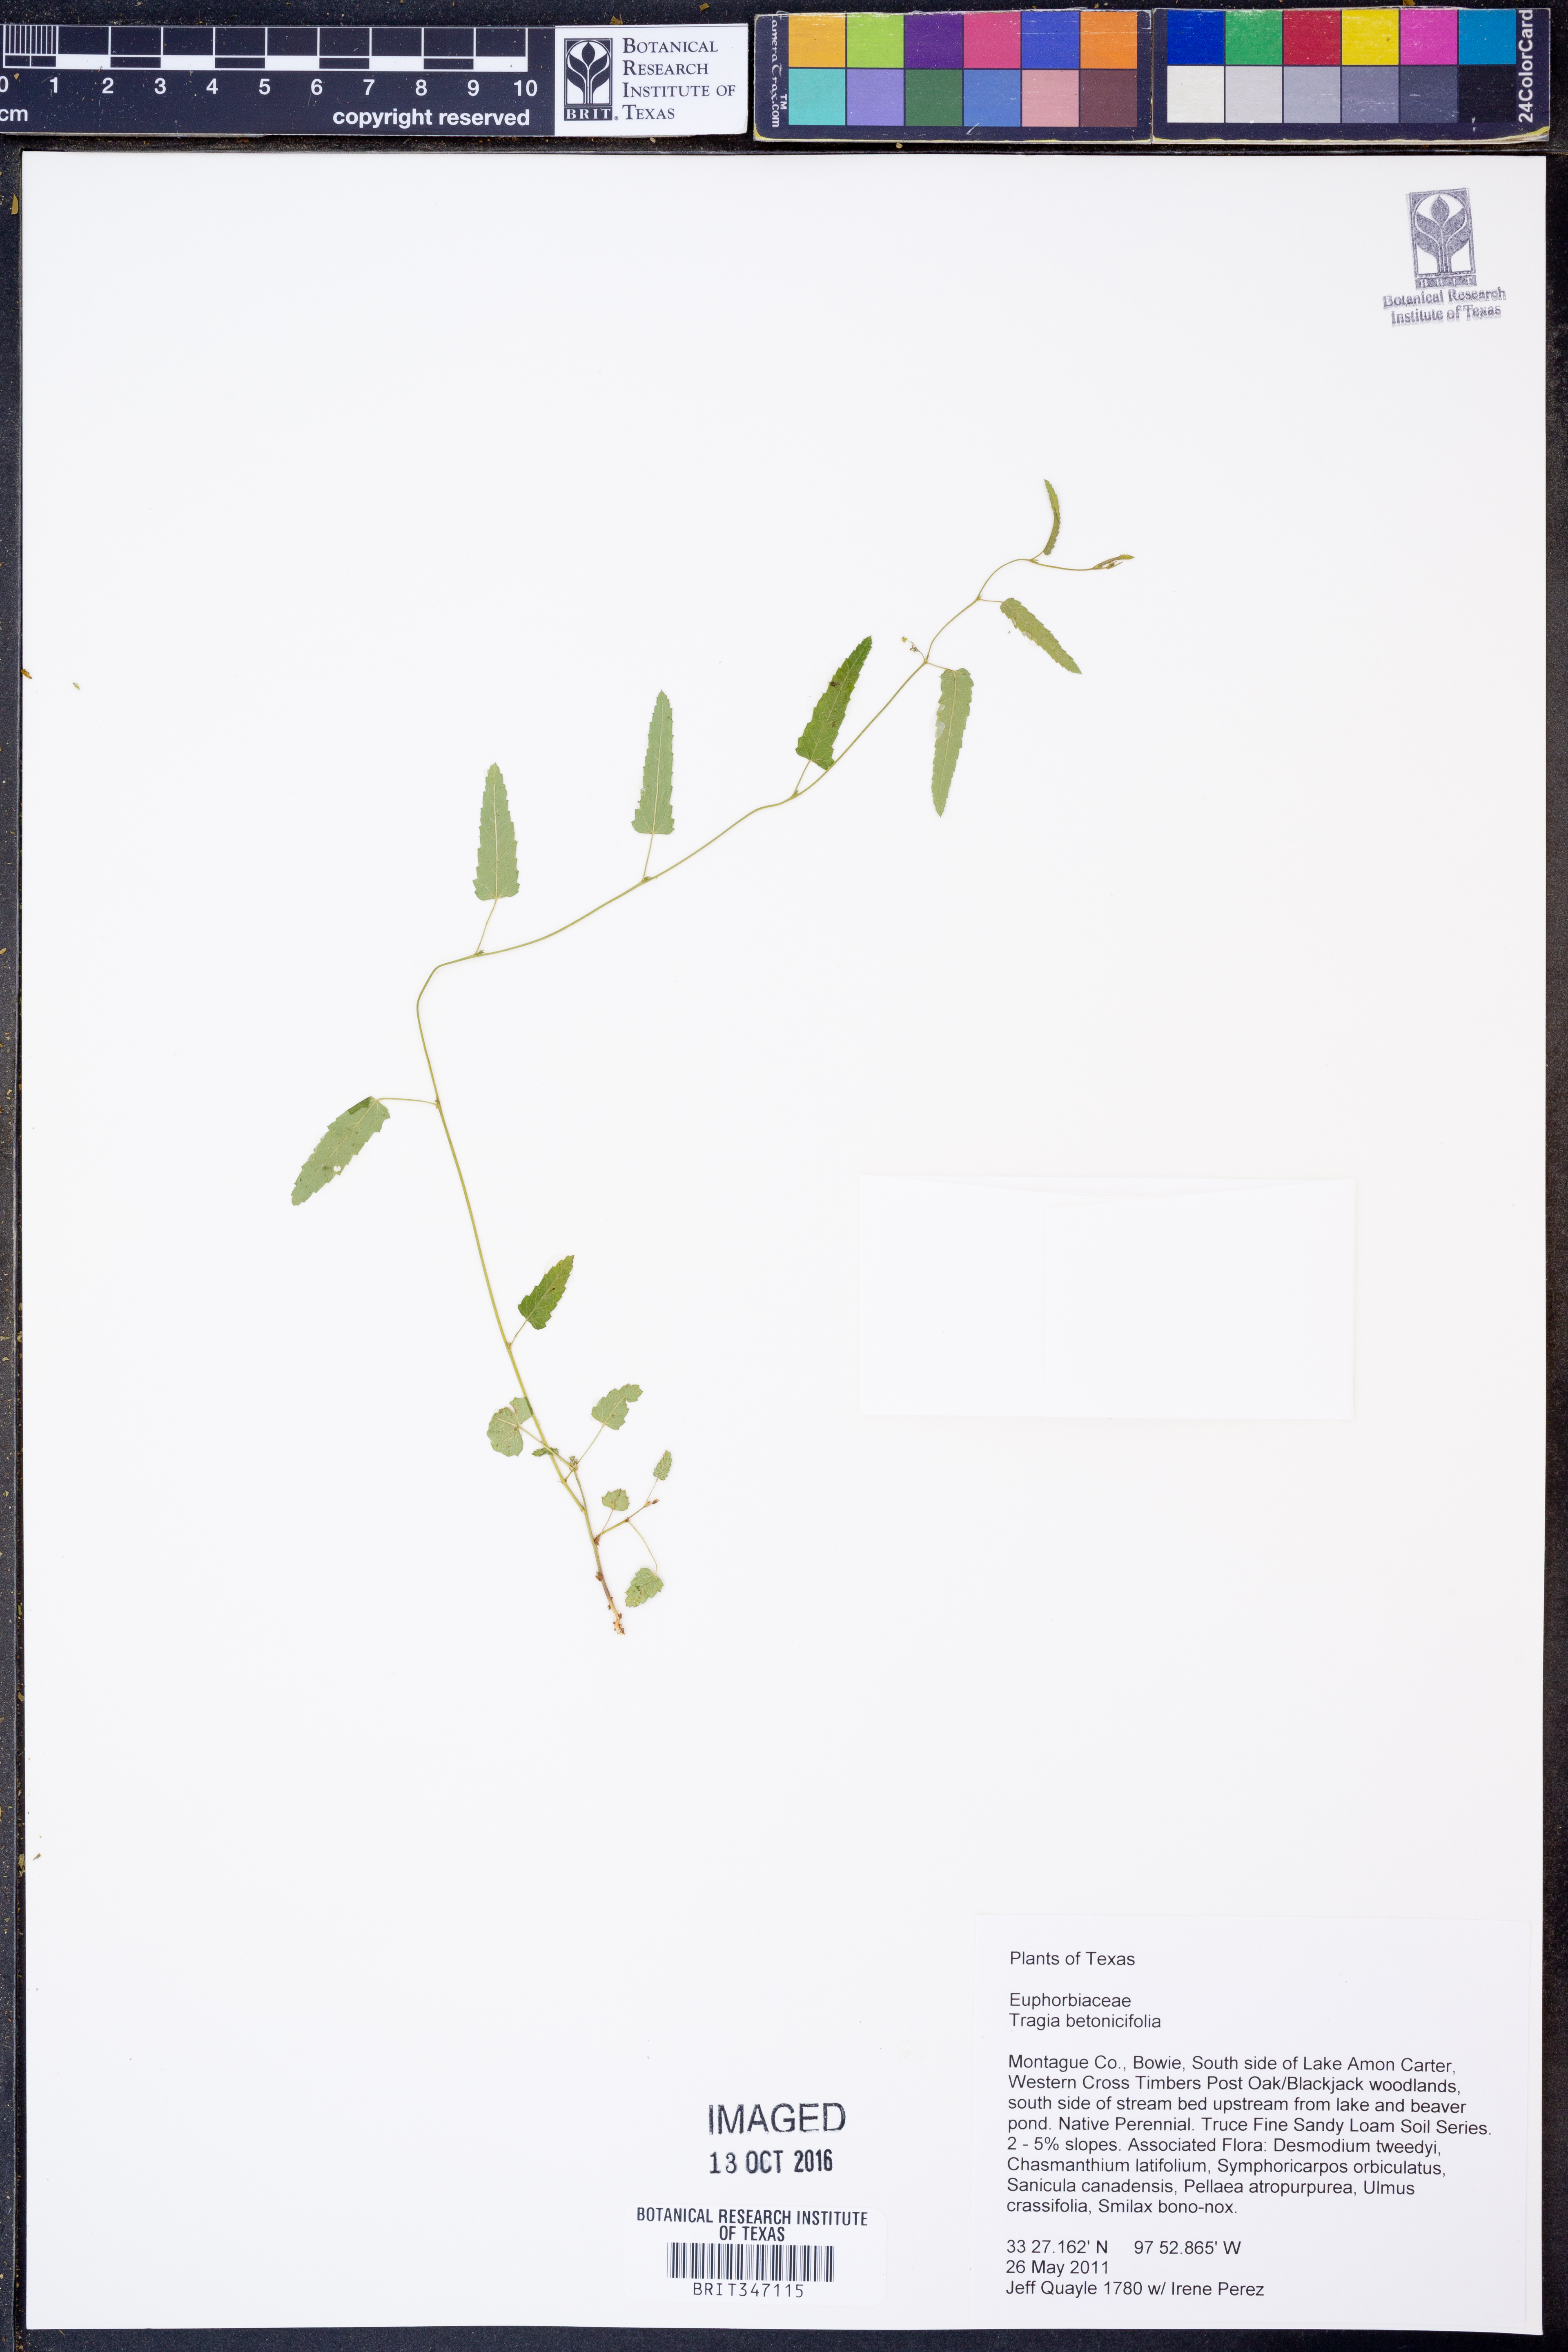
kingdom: Plantae
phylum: Tracheophyta
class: Magnoliopsida
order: Malpighiales
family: Euphorbiaceae
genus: Tragia
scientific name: Tragia betonicifolia
